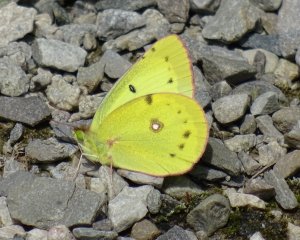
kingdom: Animalia
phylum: Arthropoda
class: Insecta
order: Lepidoptera
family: Pieridae
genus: Colias
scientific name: Colias philodice
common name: Clouded Sulphur
